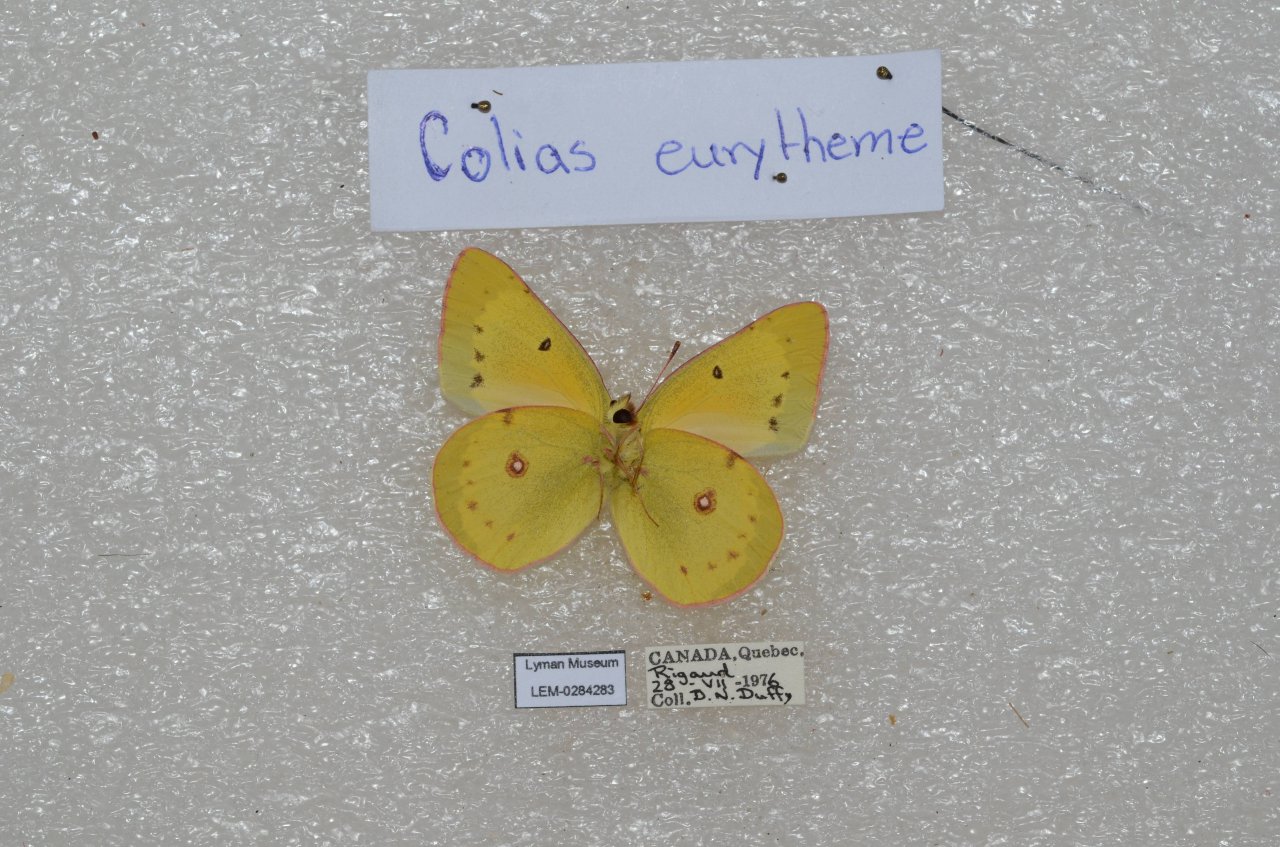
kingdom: Animalia
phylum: Arthropoda
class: Insecta
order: Lepidoptera
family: Pieridae
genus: Colias
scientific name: Colias eurytheme
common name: Orange Sulphur
